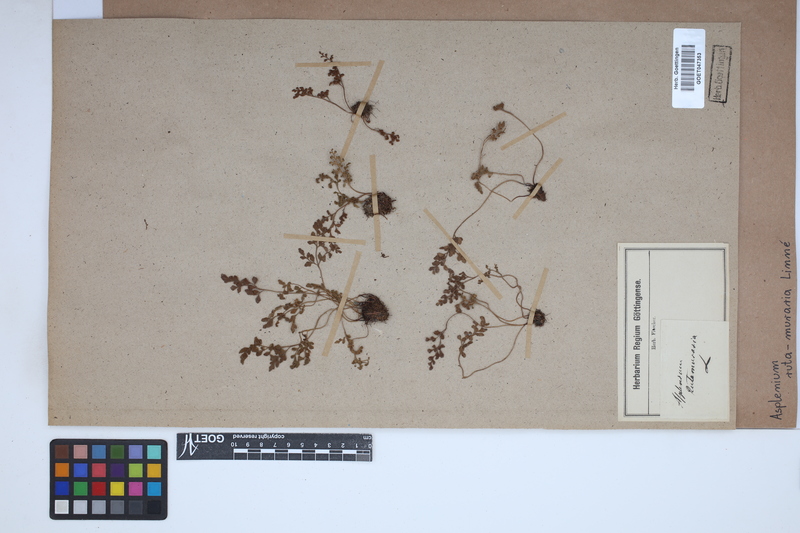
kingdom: Plantae
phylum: Tracheophyta
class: Polypodiopsida
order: Polypodiales
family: Aspleniaceae
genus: Asplenium
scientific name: Asplenium ruta-muraria
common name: Wall-rue
